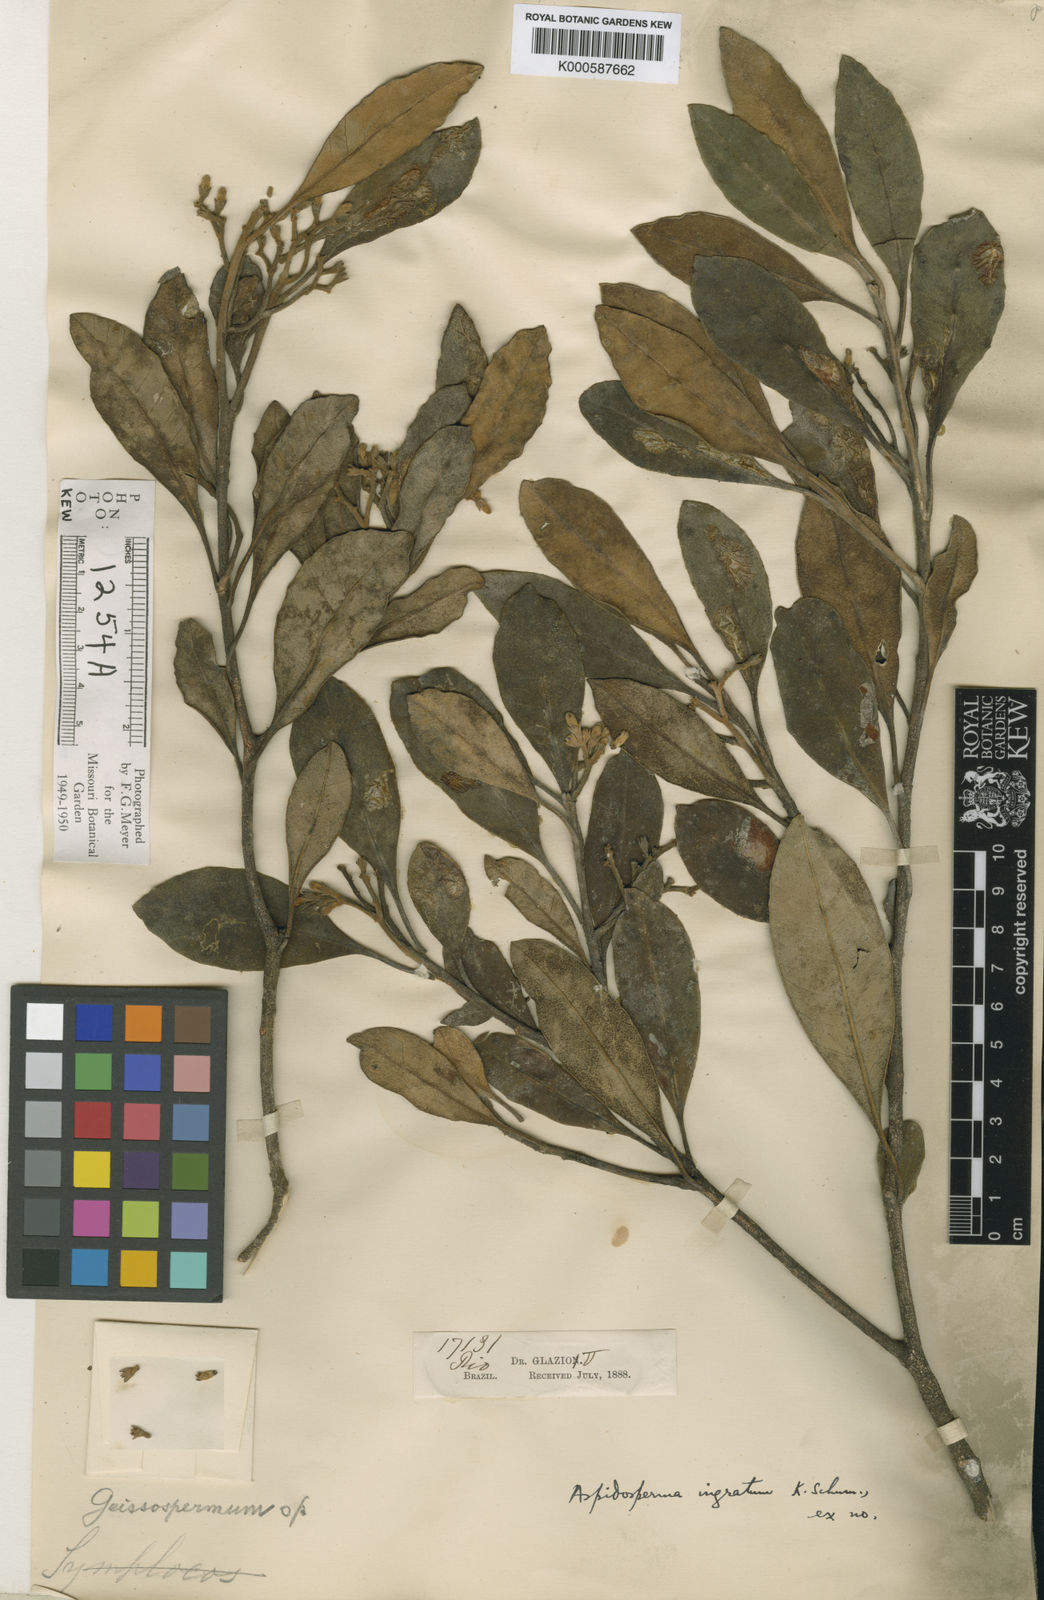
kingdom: Plantae
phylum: Tracheophyta
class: Magnoliopsida
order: Gentianales
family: Apocynaceae
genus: Aspidosperma
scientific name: Aspidosperma parvifolium
